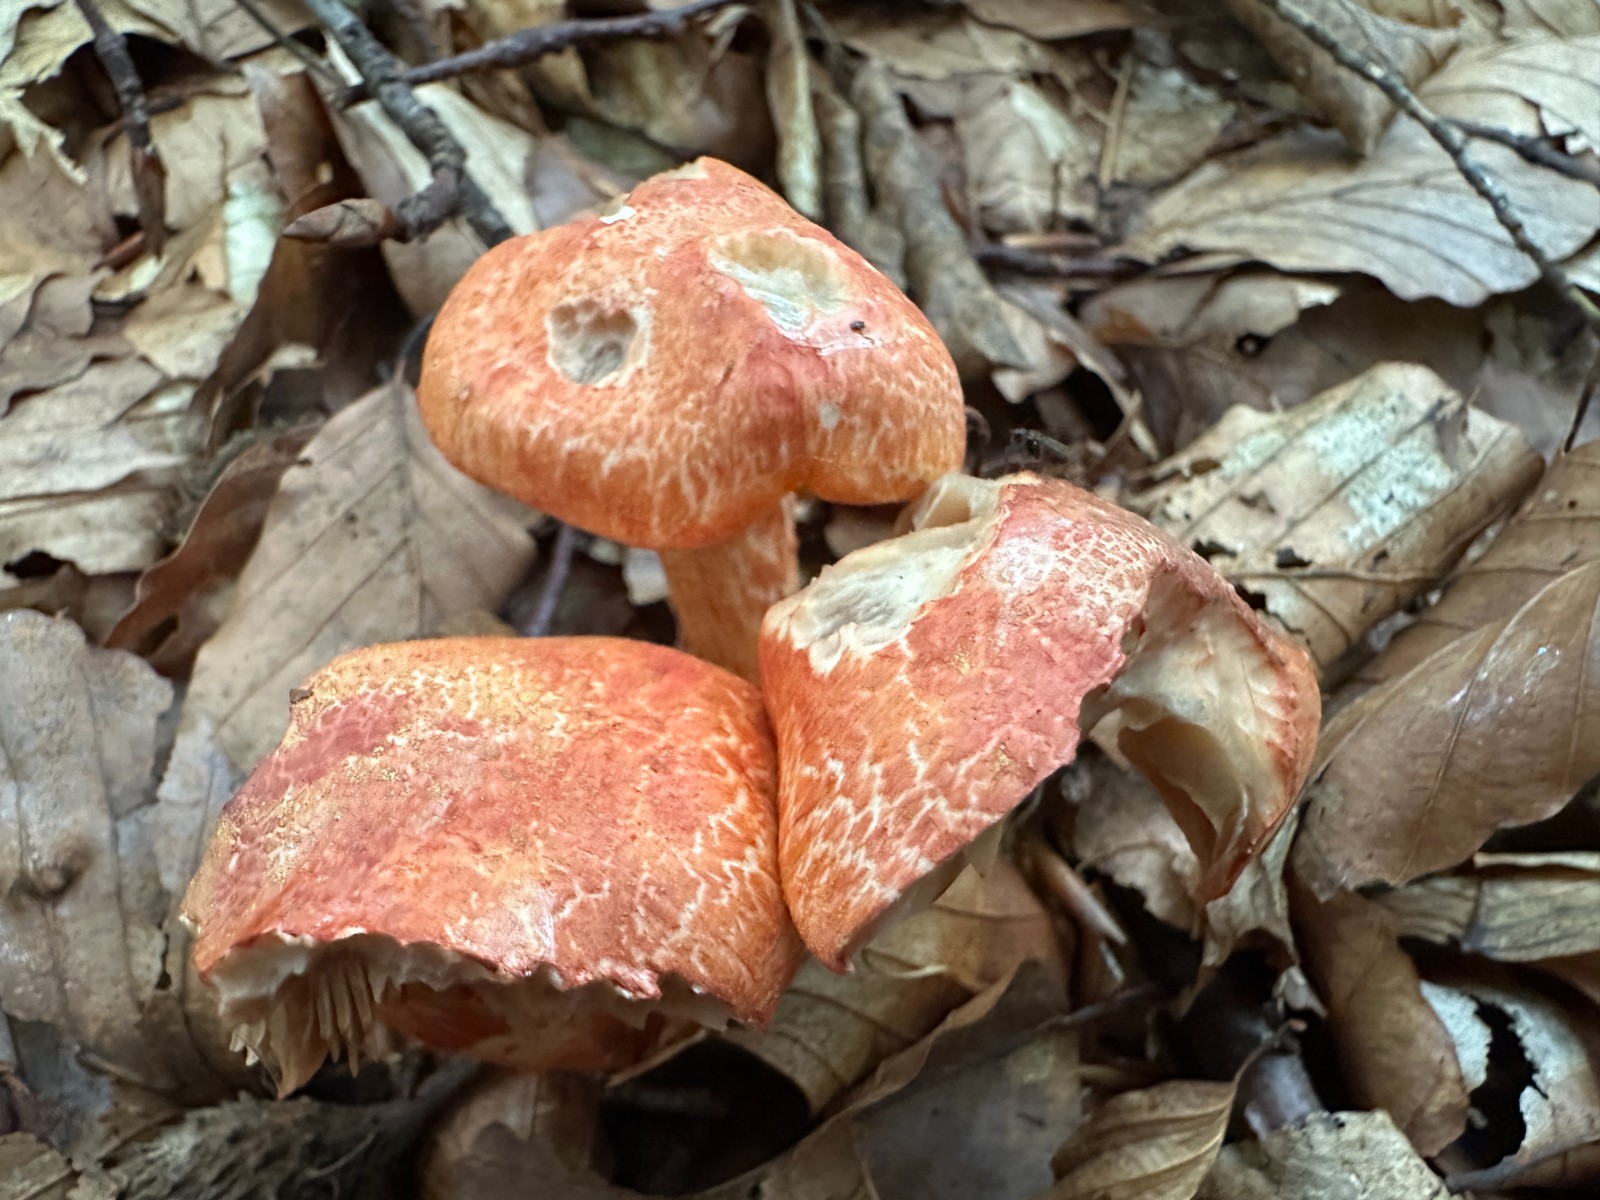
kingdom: Fungi
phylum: Basidiomycota
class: Agaricomycetes
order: Agaricales
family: Cortinariaceae
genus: Cortinarius
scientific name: Cortinarius bolaris
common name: cinnoberskællet slørhat
